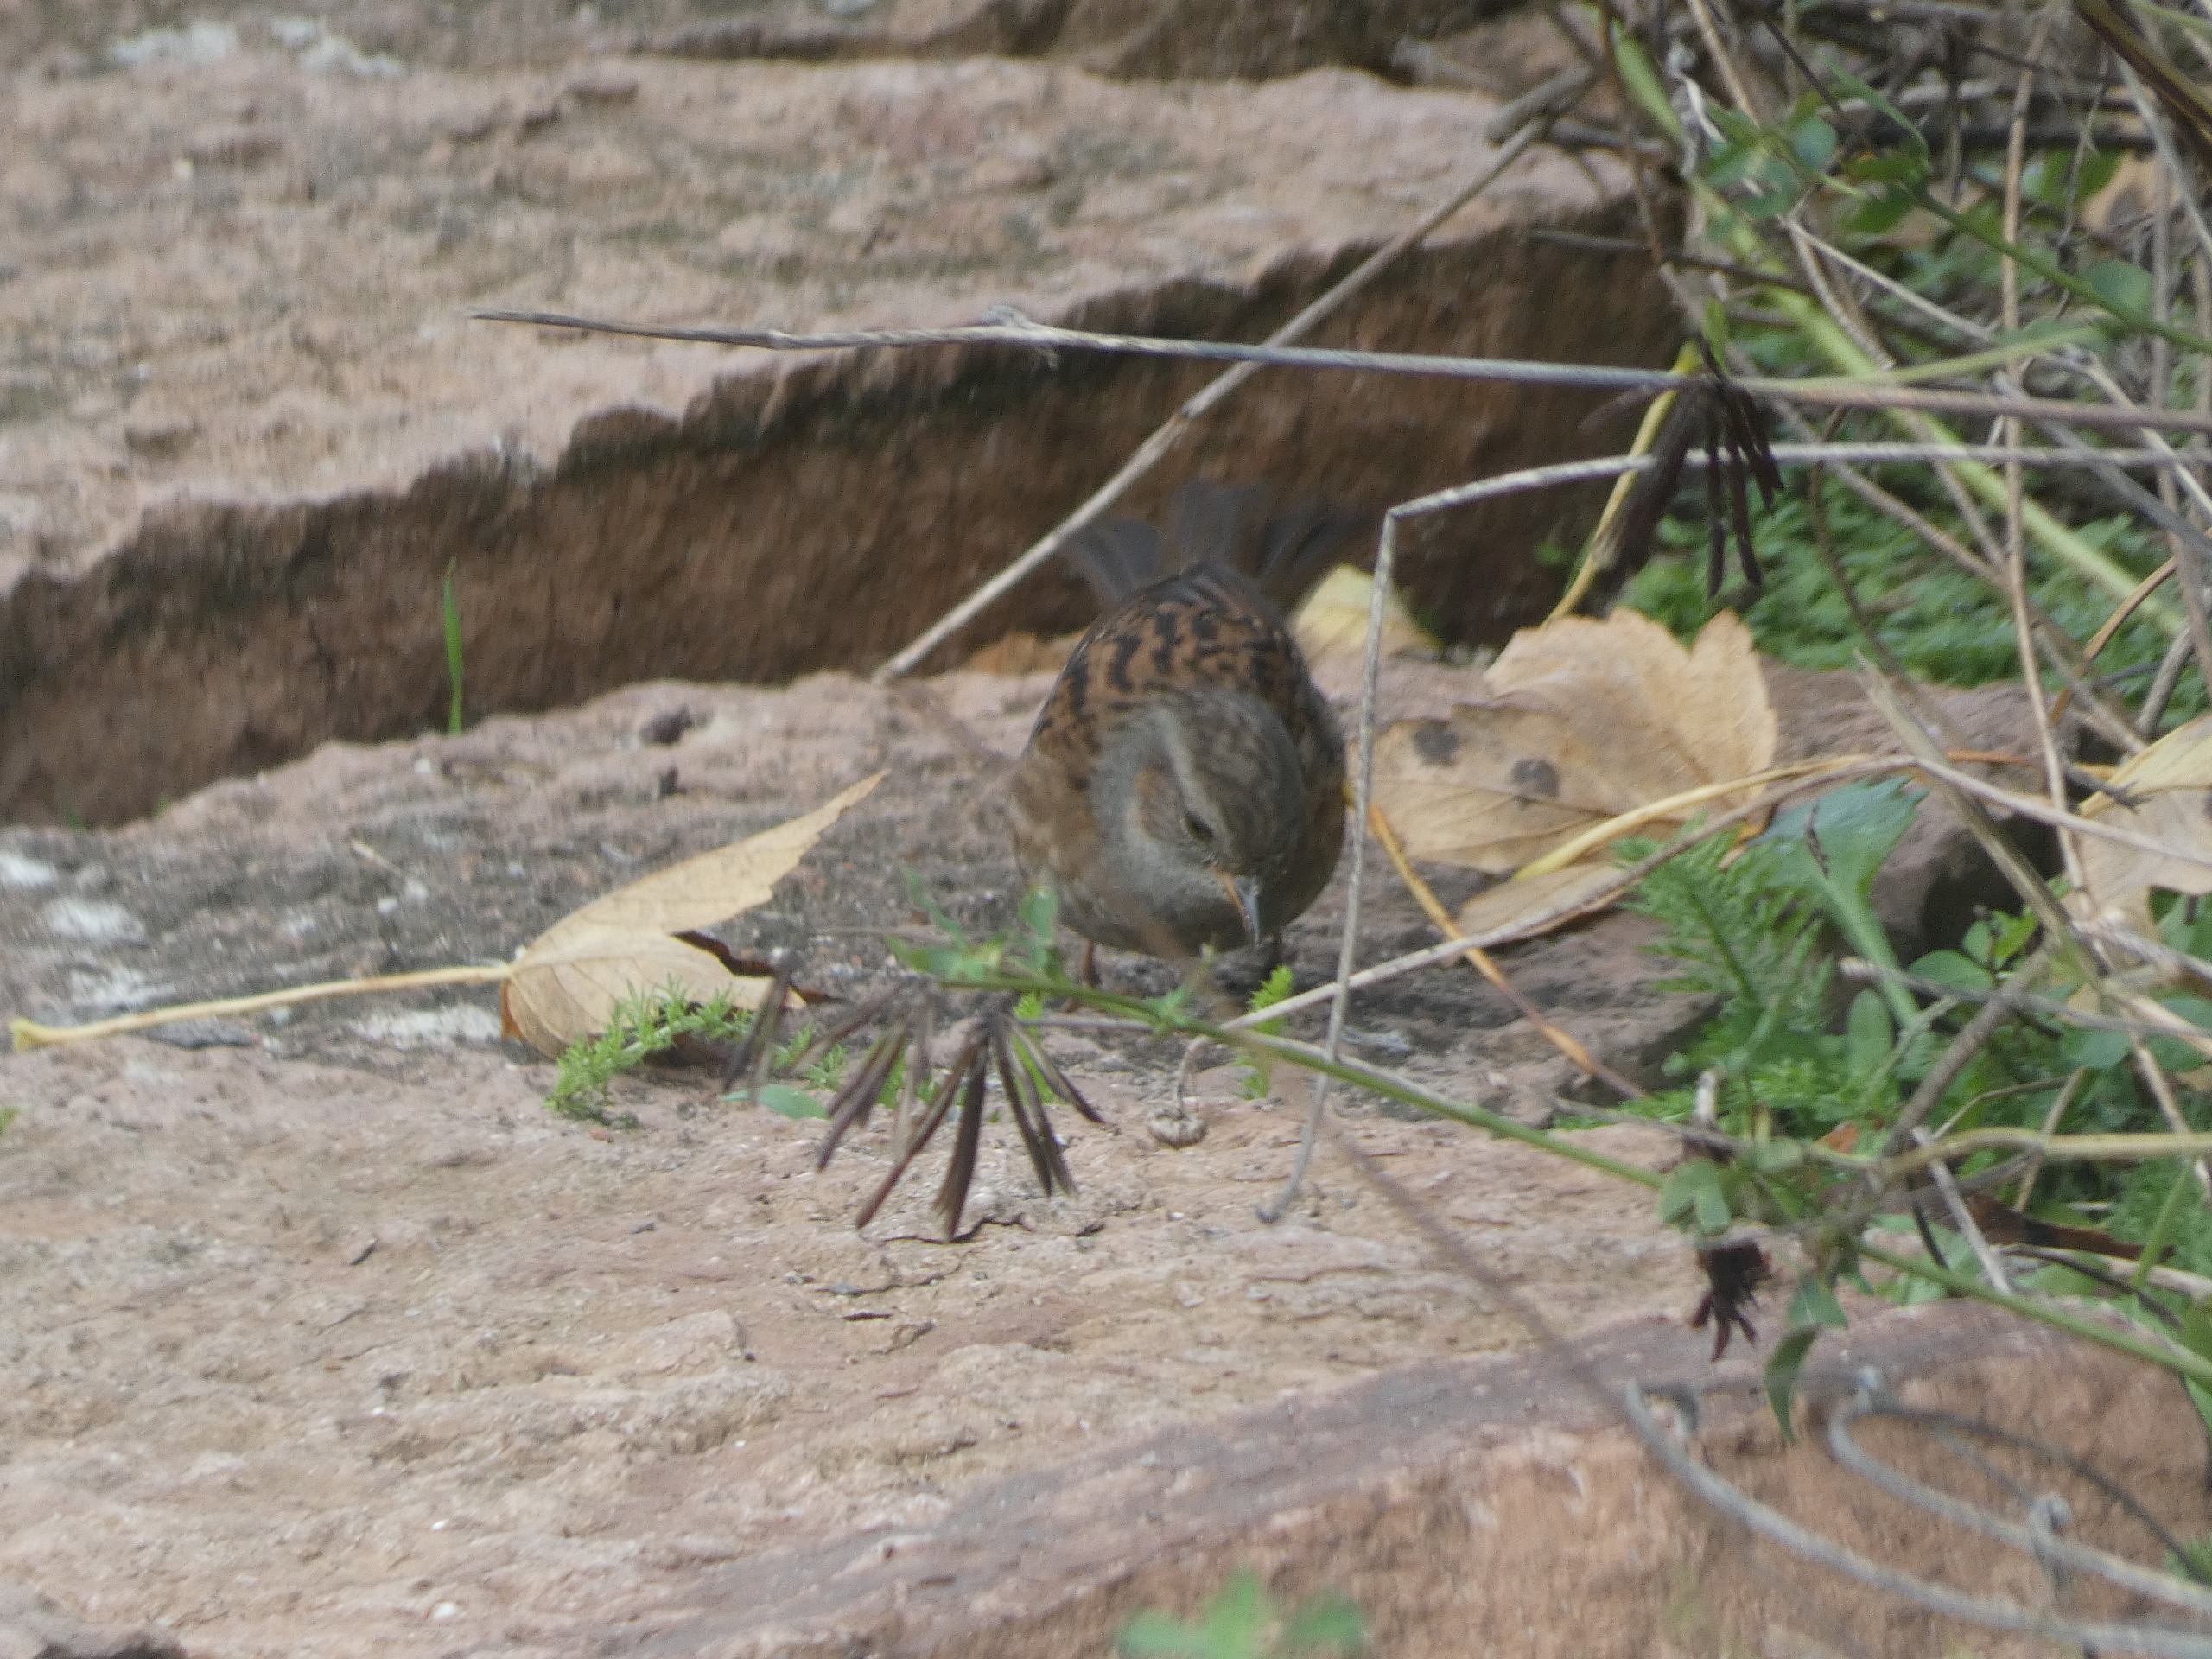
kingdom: Animalia
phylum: Chordata
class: Aves
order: Passeriformes
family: Prunellidae
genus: Prunella
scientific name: Prunella modularis
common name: Jernspurv
